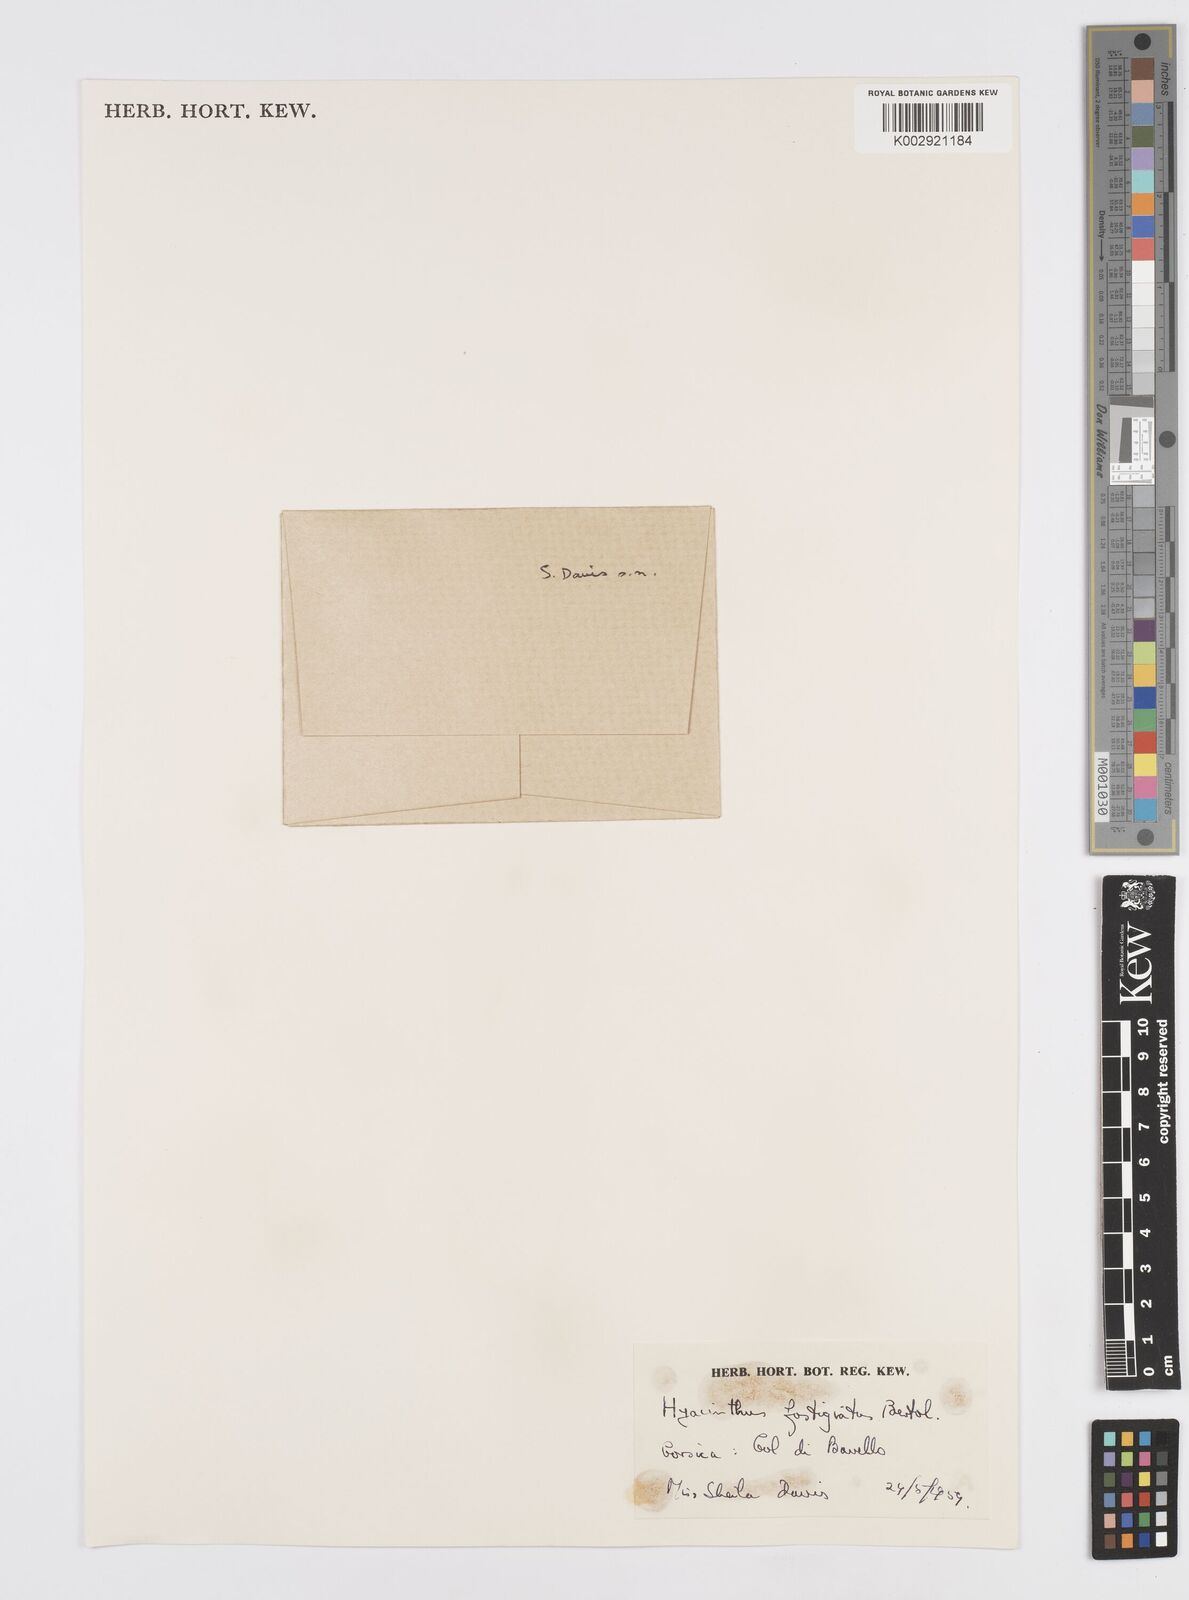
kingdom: Plantae
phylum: Tracheophyta
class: Liliopsida
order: Asparagales
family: Asparagaceae
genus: Brimeura
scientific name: Brimeura fastigiata
